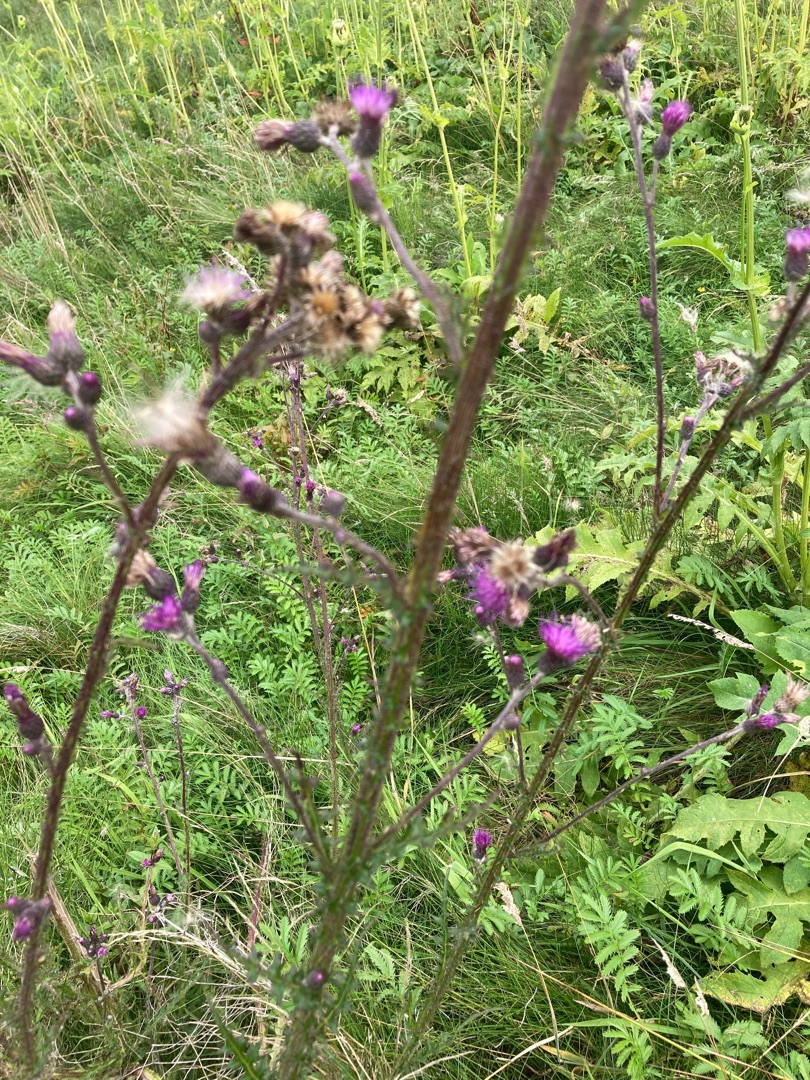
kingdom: Plantae
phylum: Tracheophyta
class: Magnoliopsida
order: Asterales
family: Asteraceae
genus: Cirsium
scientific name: Cirsium palustre
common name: Kær-tidsel
